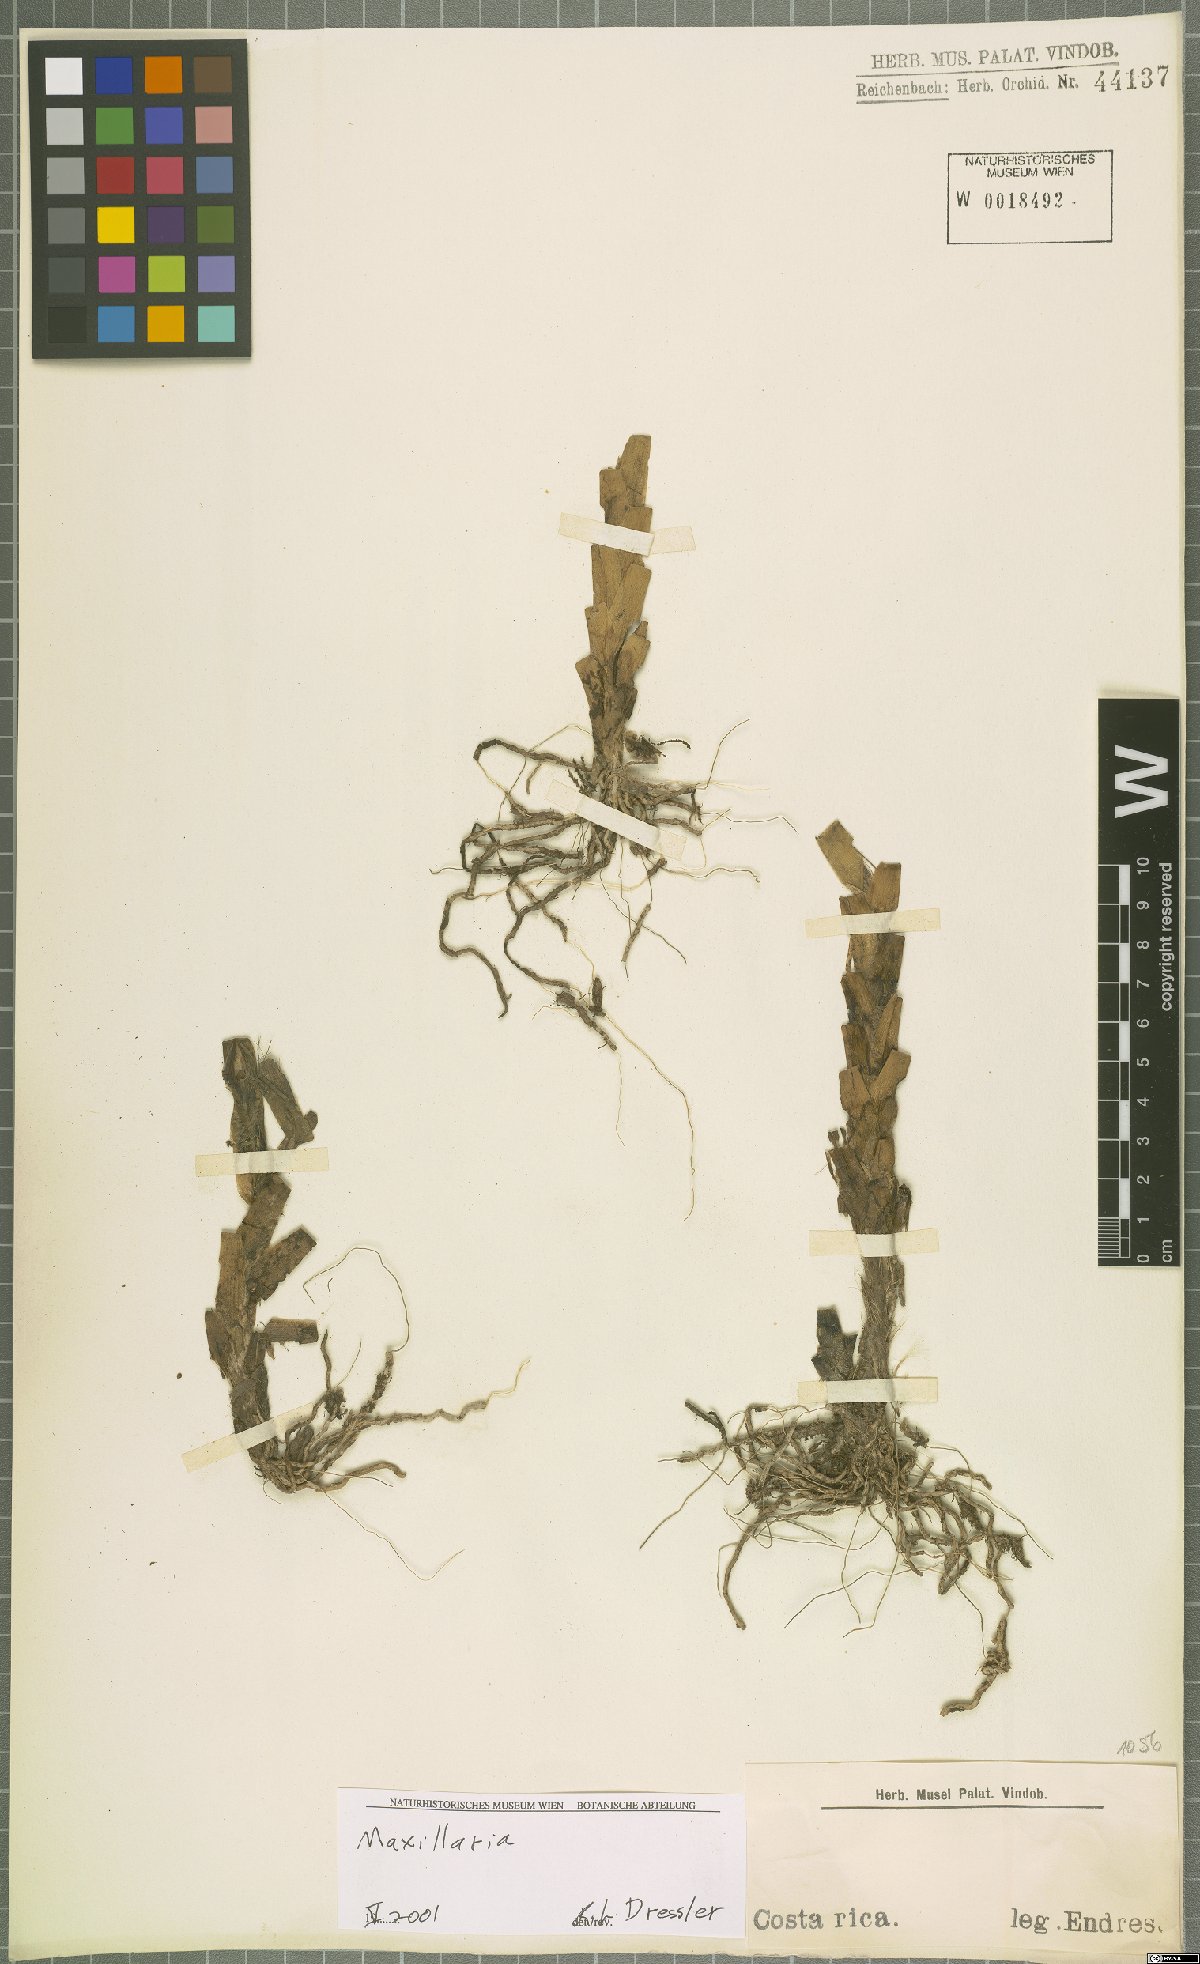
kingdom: Plantae
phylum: Tracheophyta
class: Liliopsida
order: Asparagales
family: Orchidaceae
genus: Maxillaria
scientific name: Maxillaria
